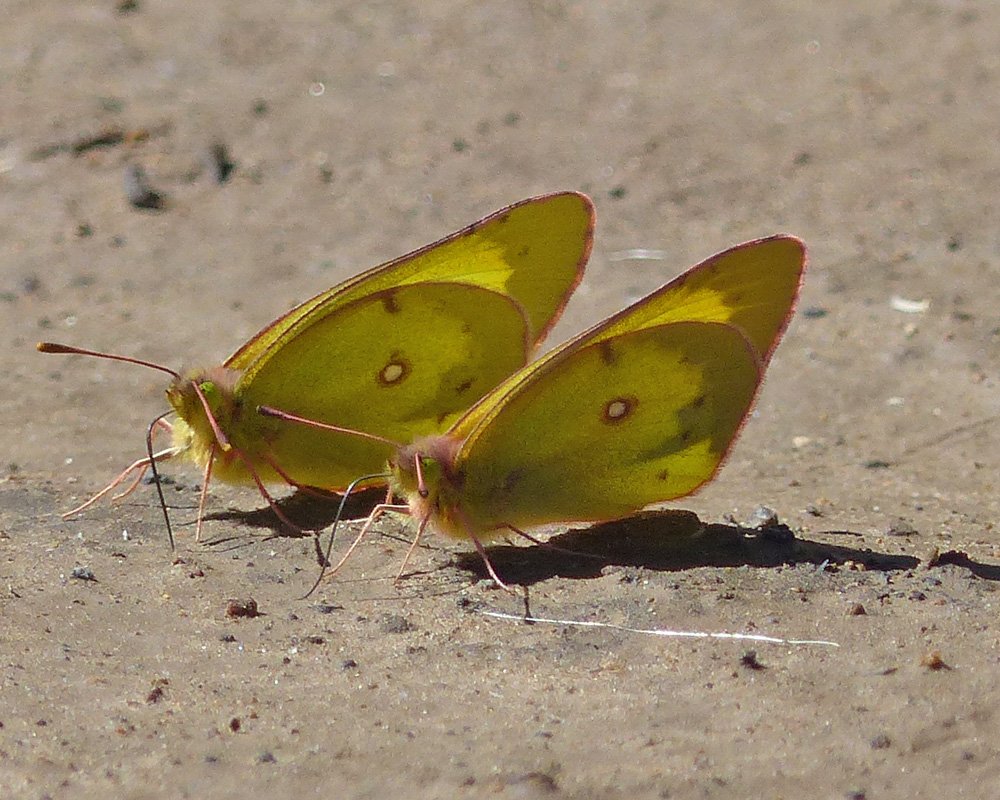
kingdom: Animalia
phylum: Arthropoda
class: Insecta
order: Lepidoptera
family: Pieridae
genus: Colias
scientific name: Colias philodice
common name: Clouded Sulphur
